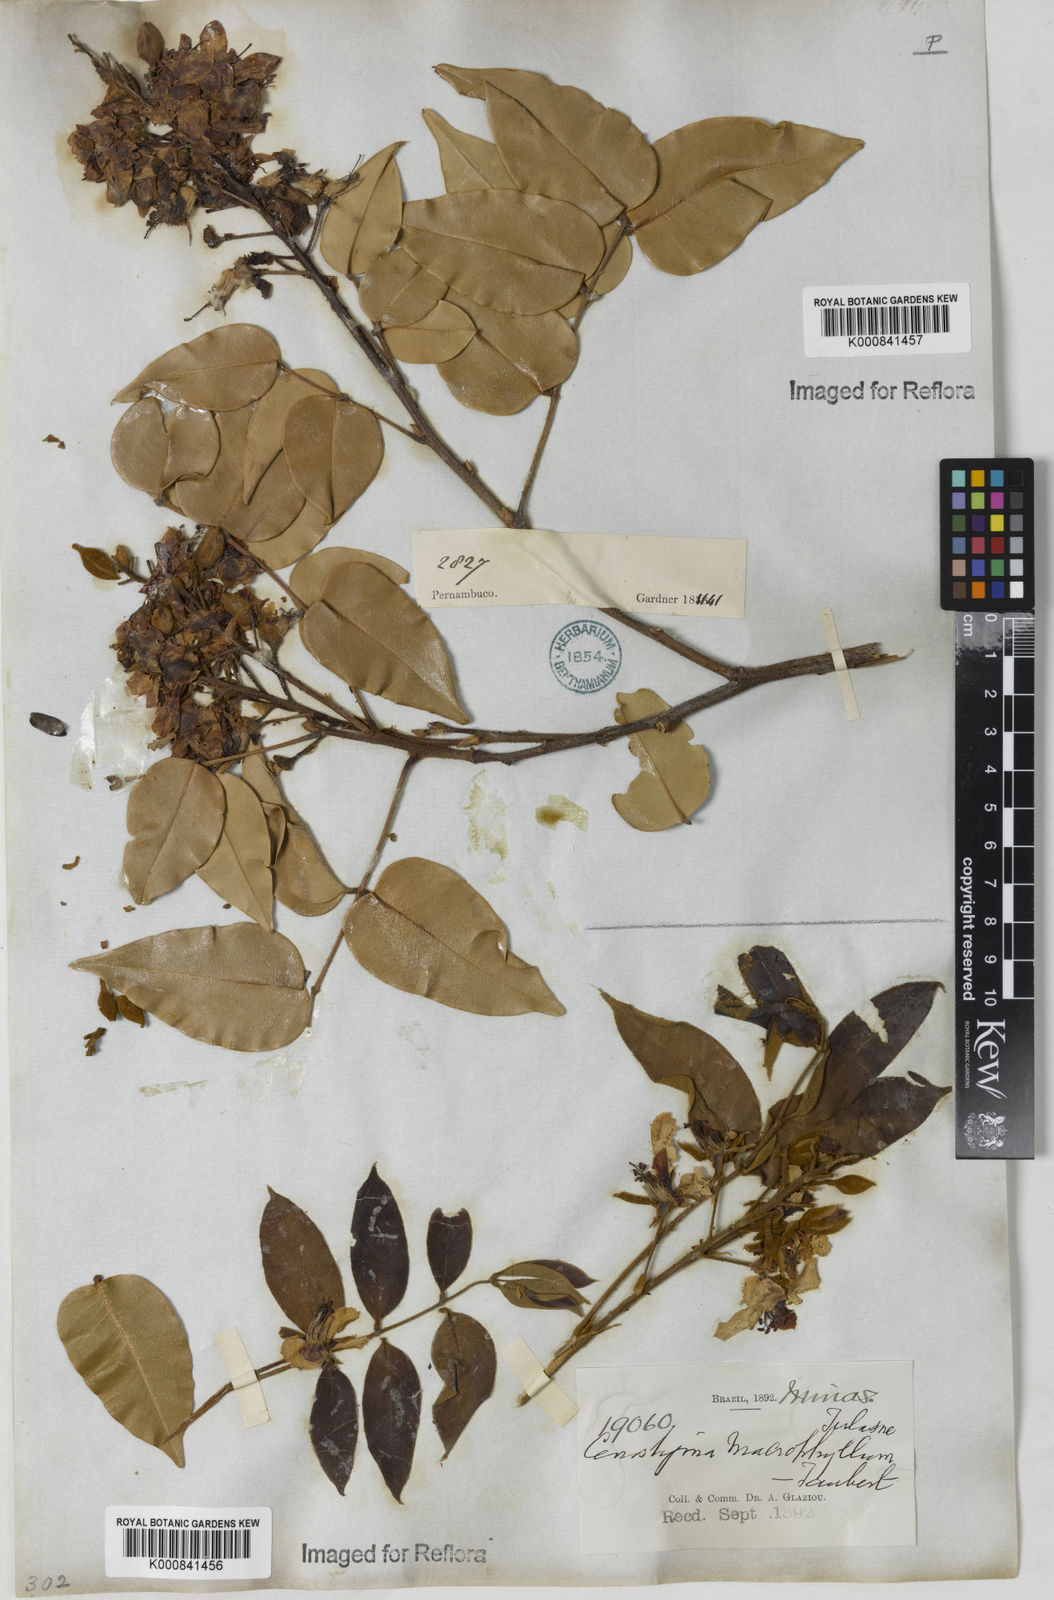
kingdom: Plantae
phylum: Tracheophyta
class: Magnoliopsida
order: Fabales
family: Fabaceae
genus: Cenostigma
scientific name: Cenostigma macrophyllum
